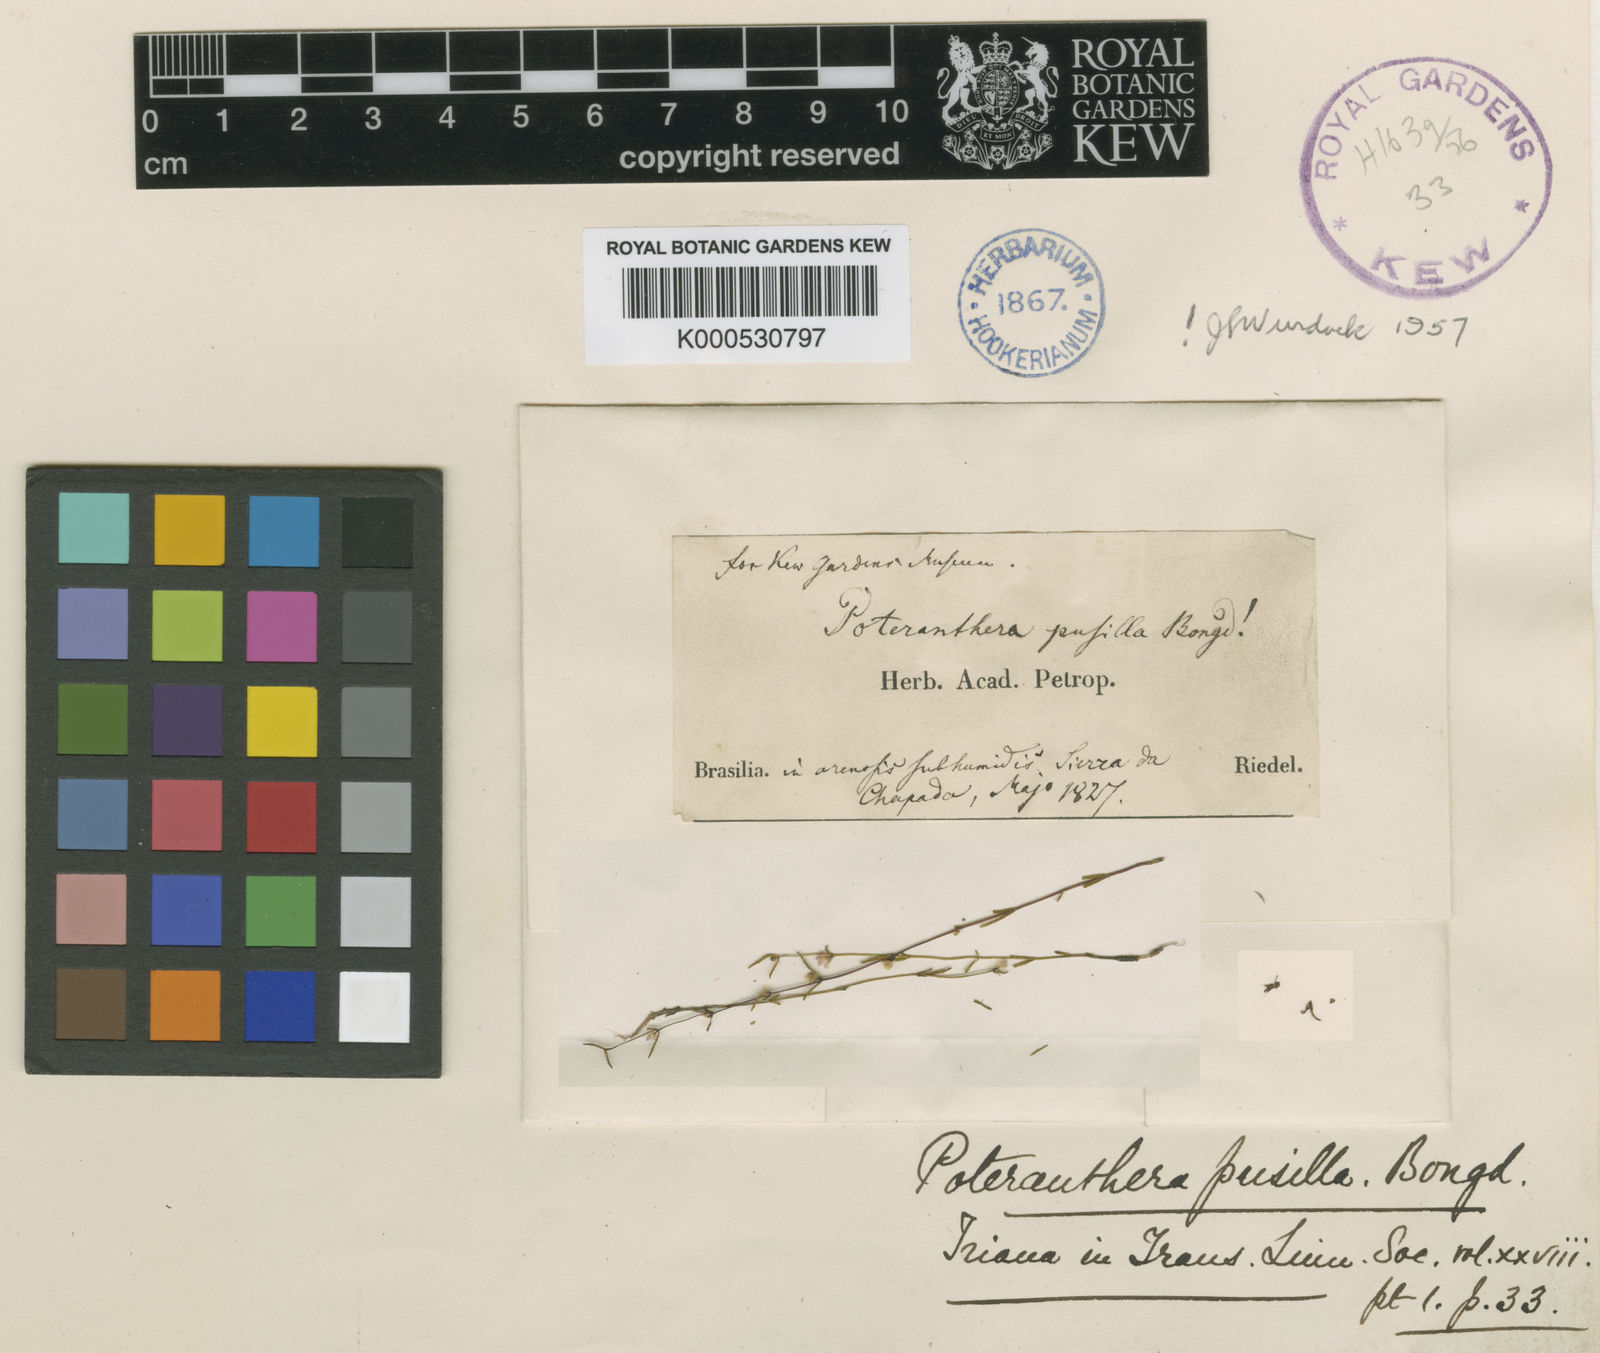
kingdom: Plantae
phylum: Tracheophyta
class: Magnoliopsida
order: Myrtales
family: Melastomataceae
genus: Poteranthera
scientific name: Poteranthera pusilla
